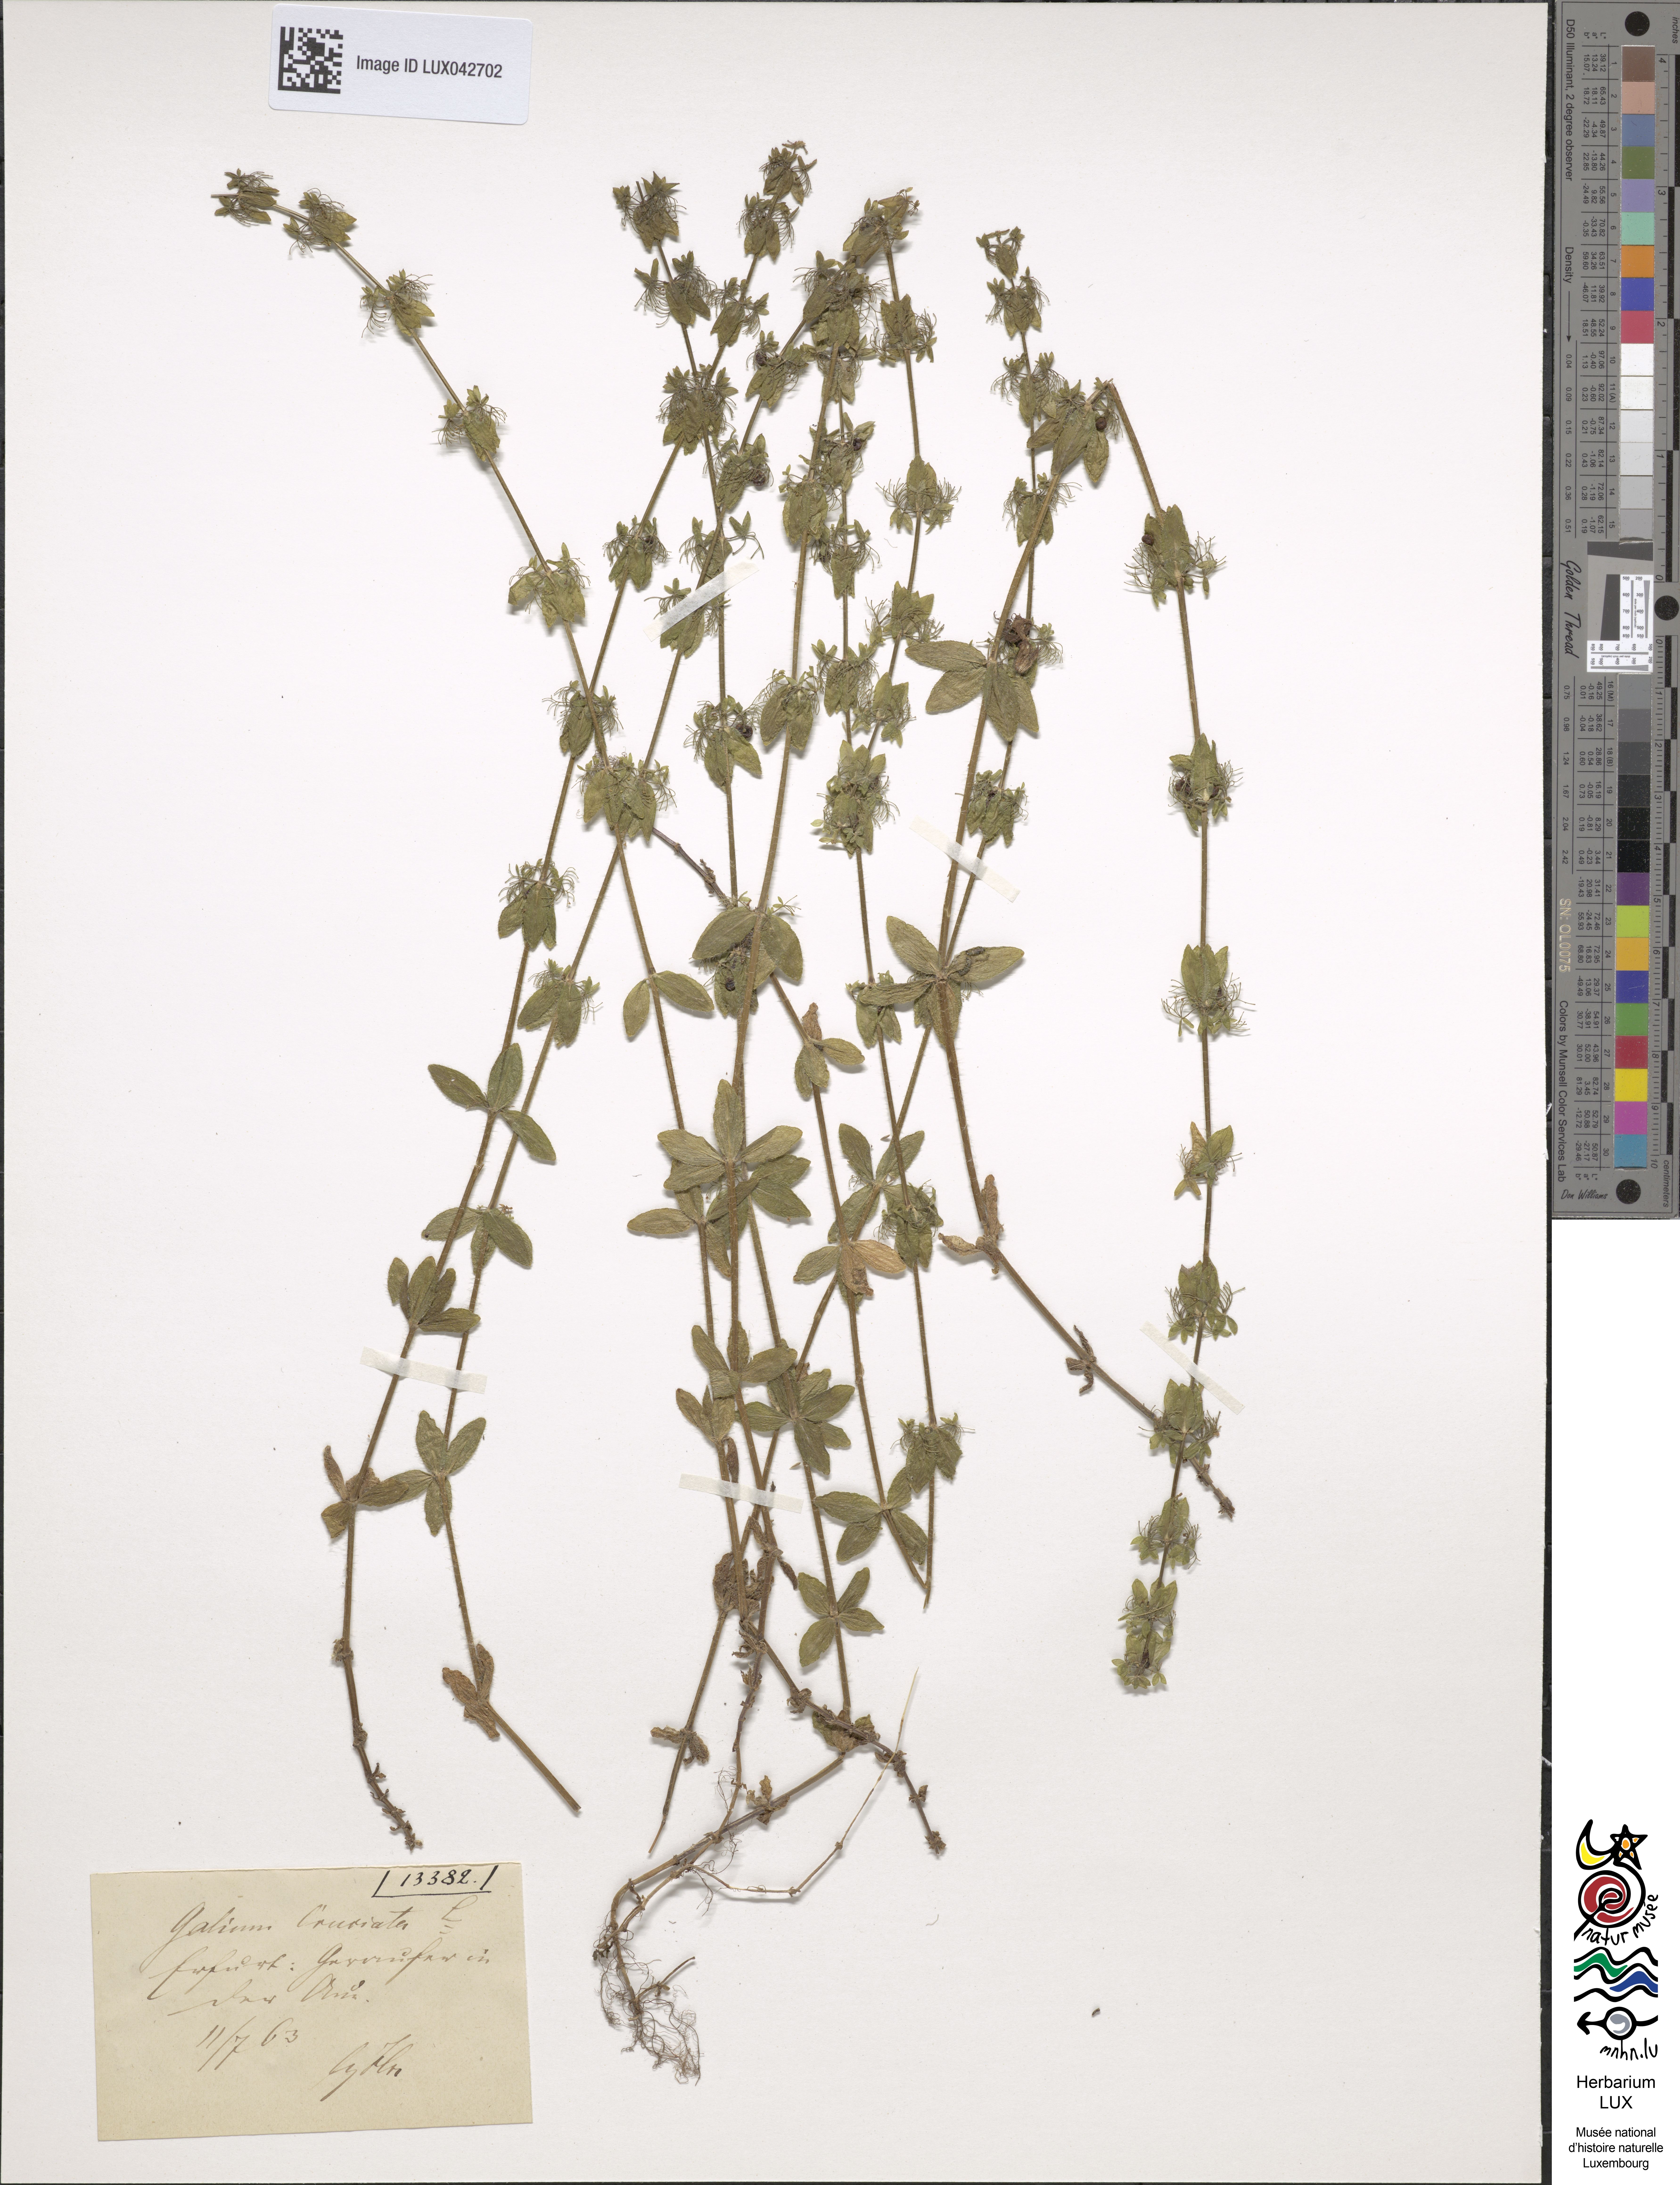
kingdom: Plantae
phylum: Tracheophyta
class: Magnoliopsida
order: Gentianales
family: Rubiaceae
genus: Cruciata
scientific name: Cruciata laevipes
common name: Crosswort
